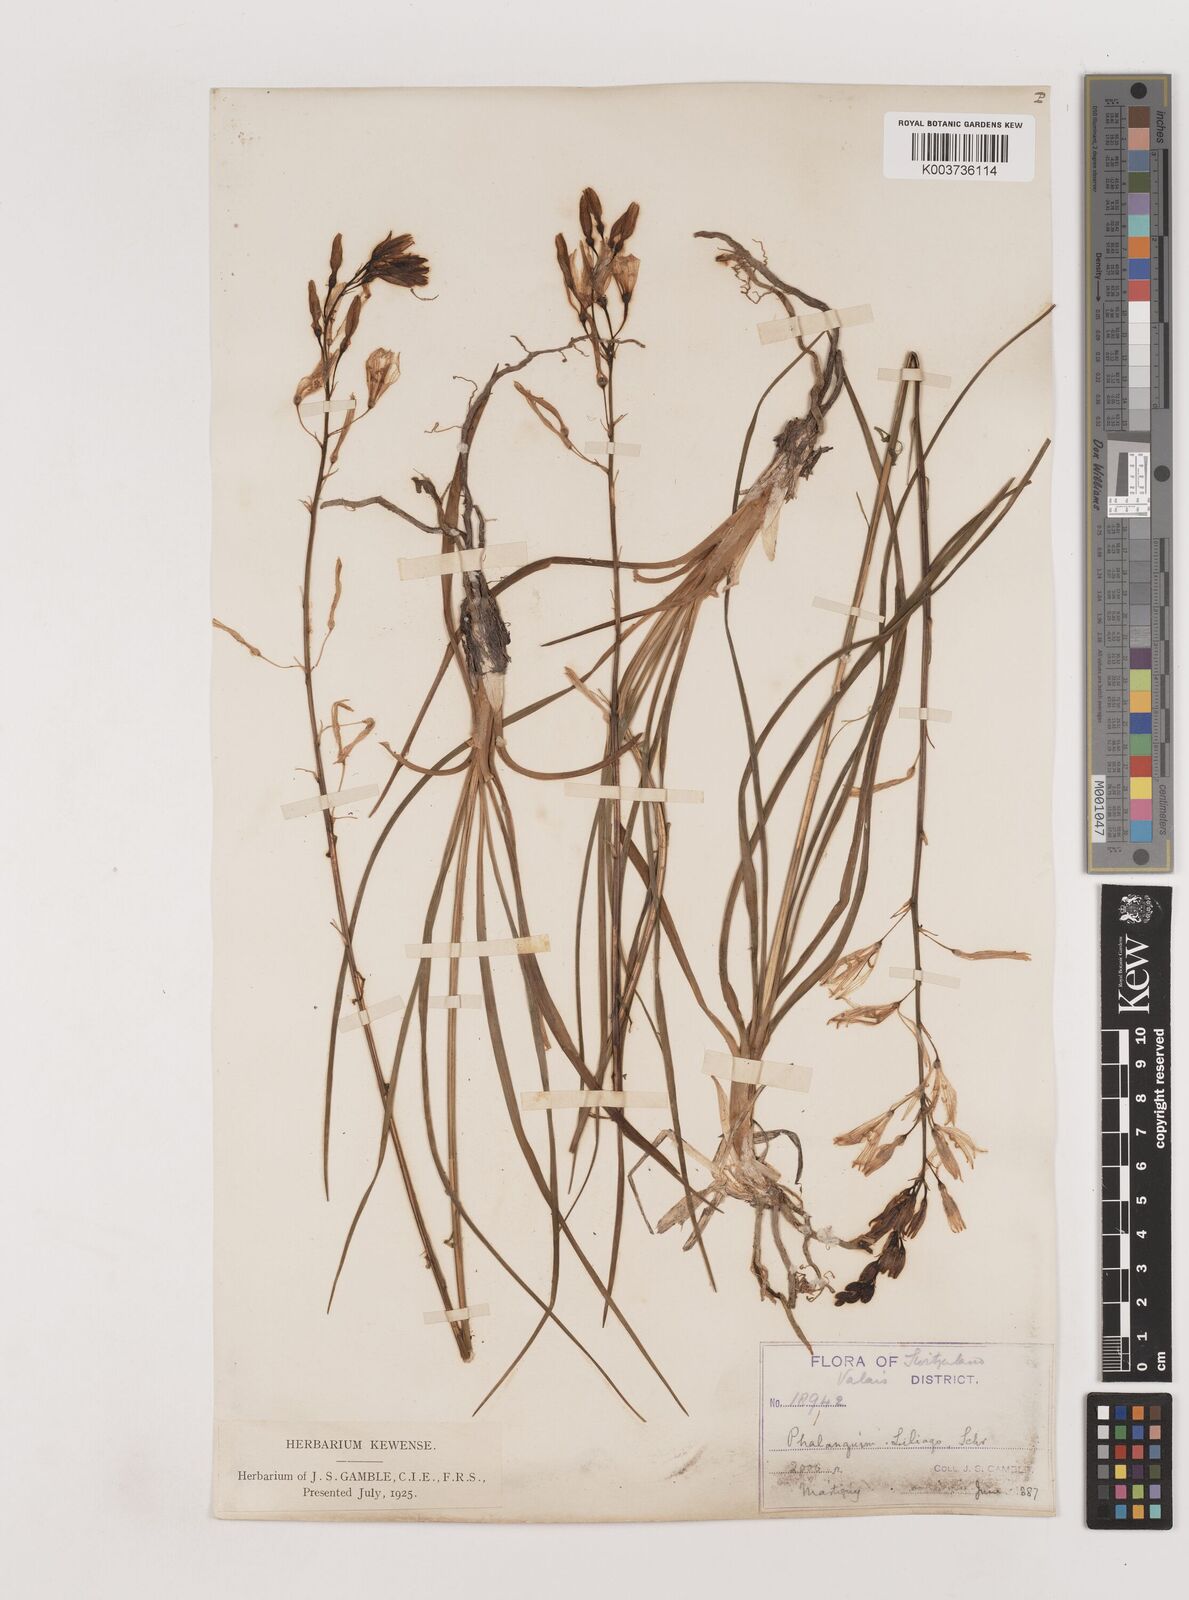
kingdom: Plantae
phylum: Tracheophyta
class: Liliopsida
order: Asparagales
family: Asparagaceae
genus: Anthericum
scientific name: Anthericum liliago
